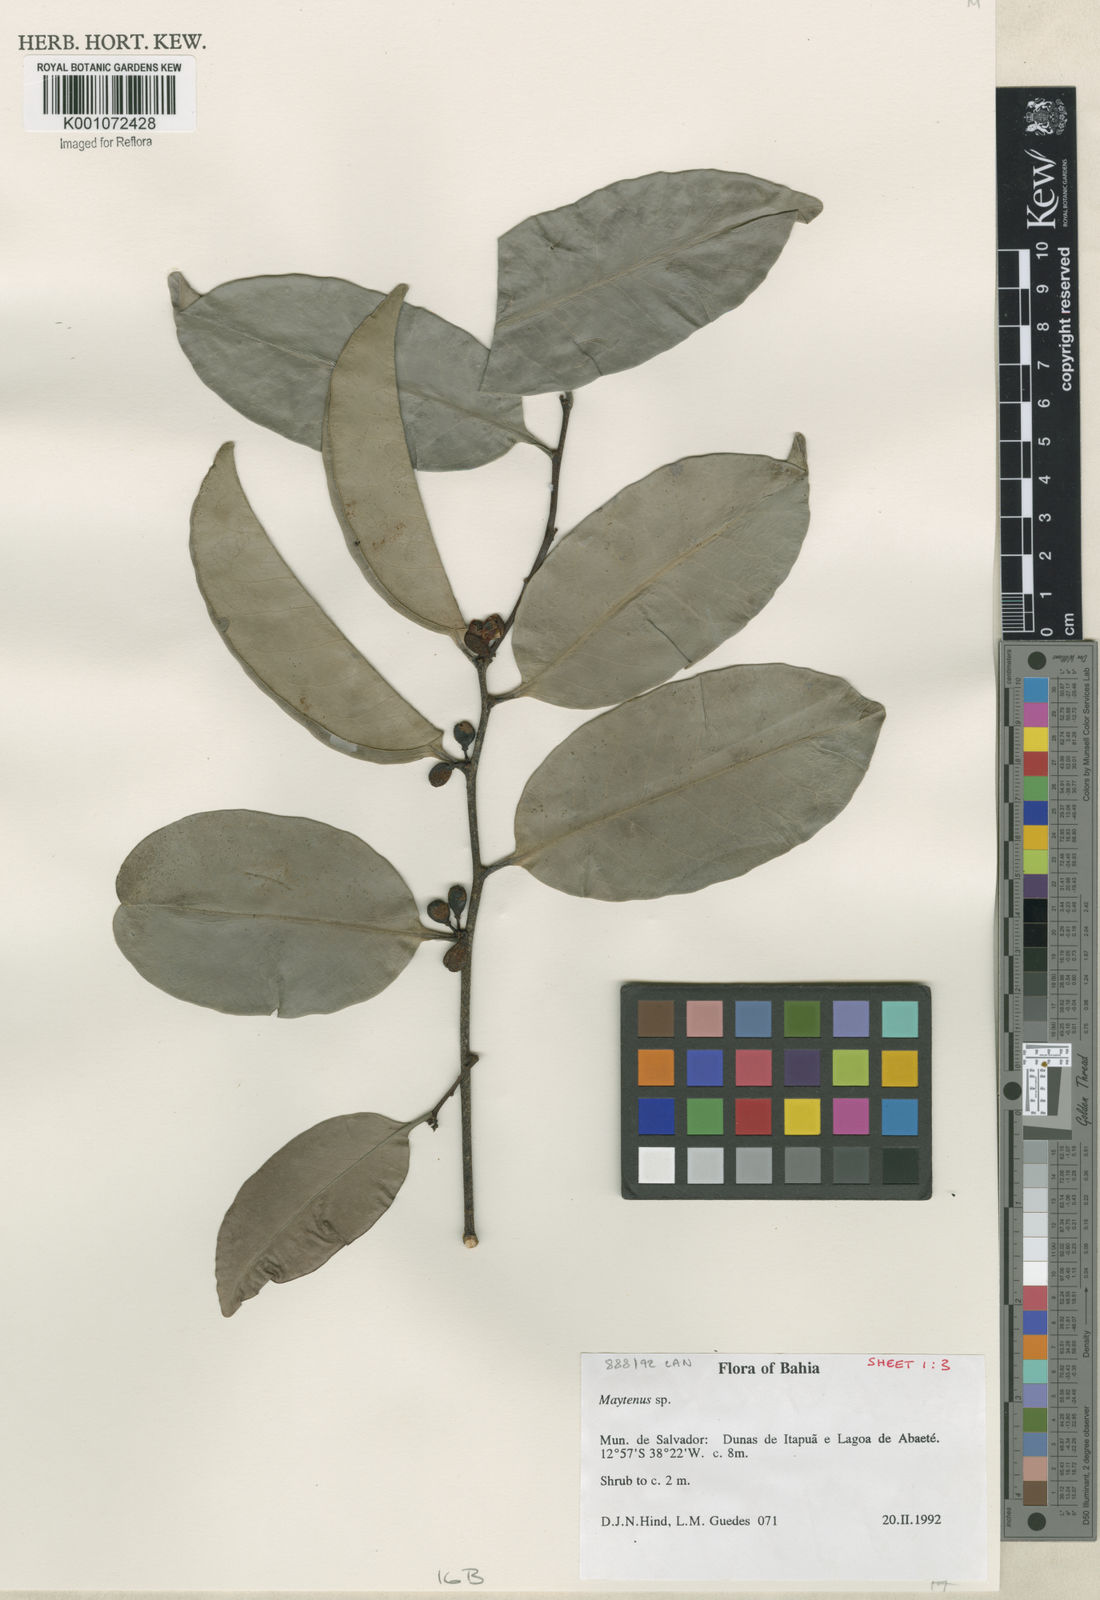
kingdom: Plantae
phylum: Tracheophyta
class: Magnoliopsida
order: Celastrales
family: Celastraceae
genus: Maytenus
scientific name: Maytenus
